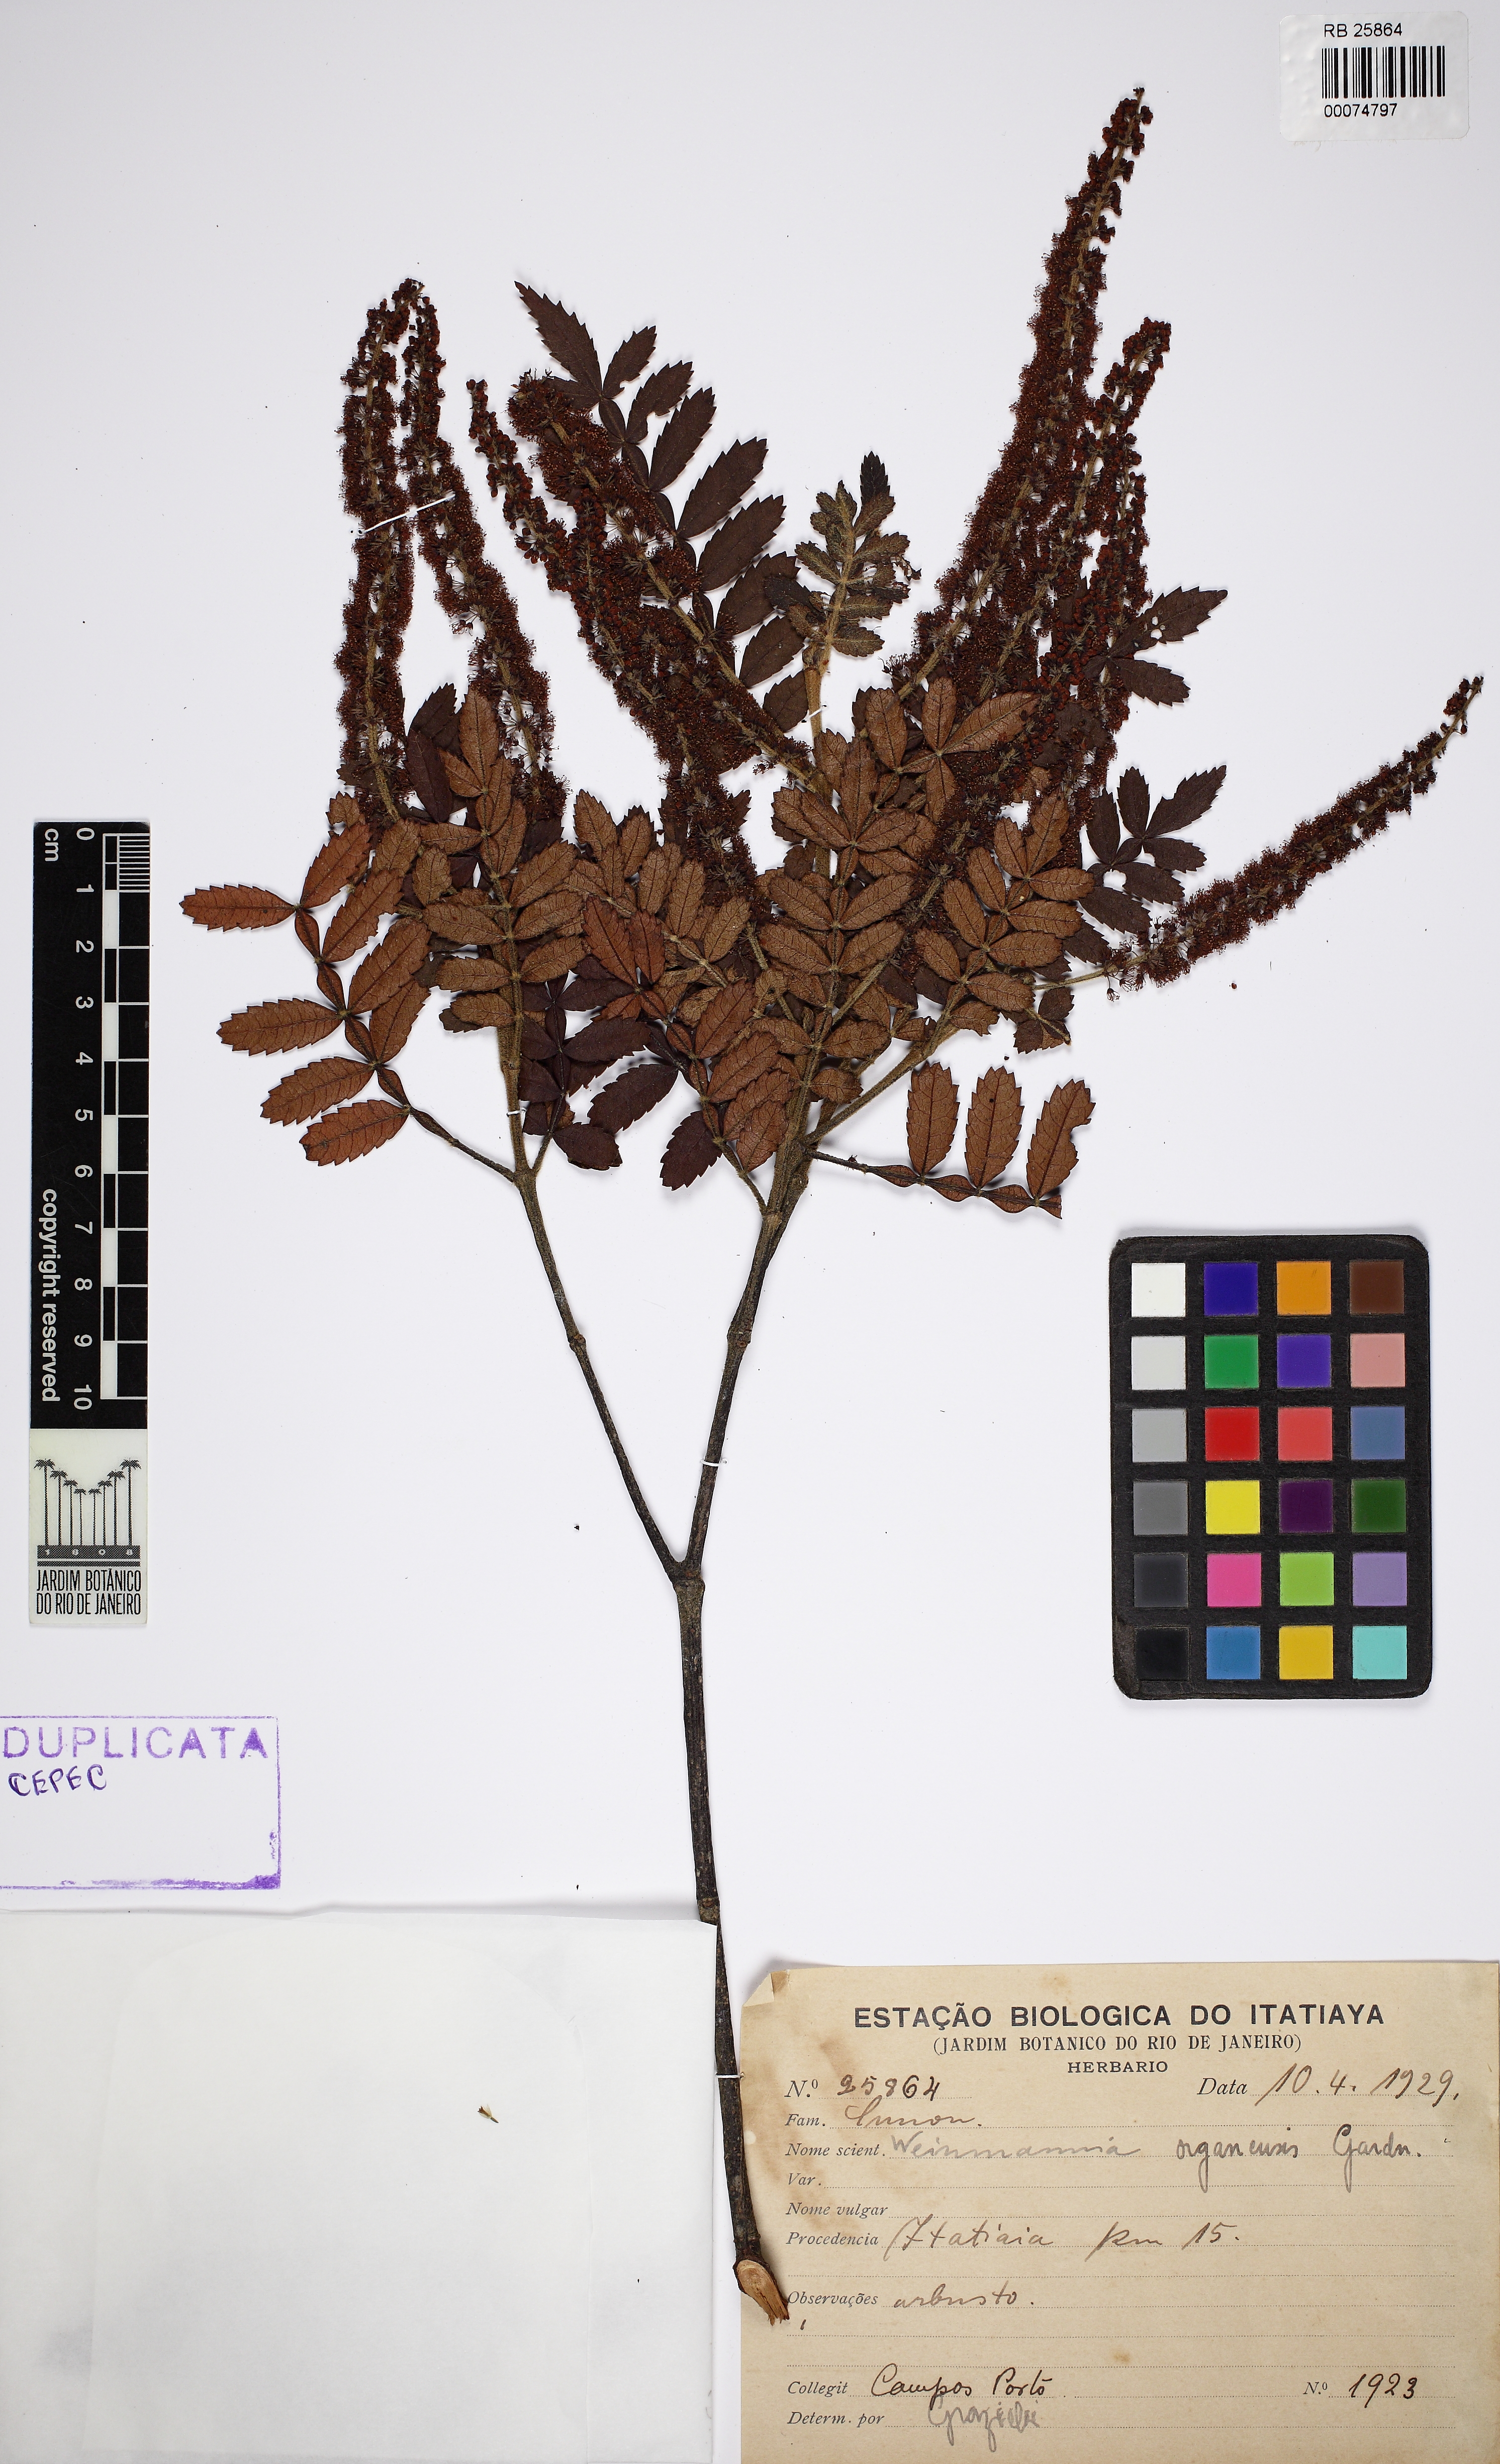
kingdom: Plantae
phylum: Tracheophyta
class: Magnoliopsida
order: Oxalidales
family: Cunoniaceae
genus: Weinmannia
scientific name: Weinmannia organensis
